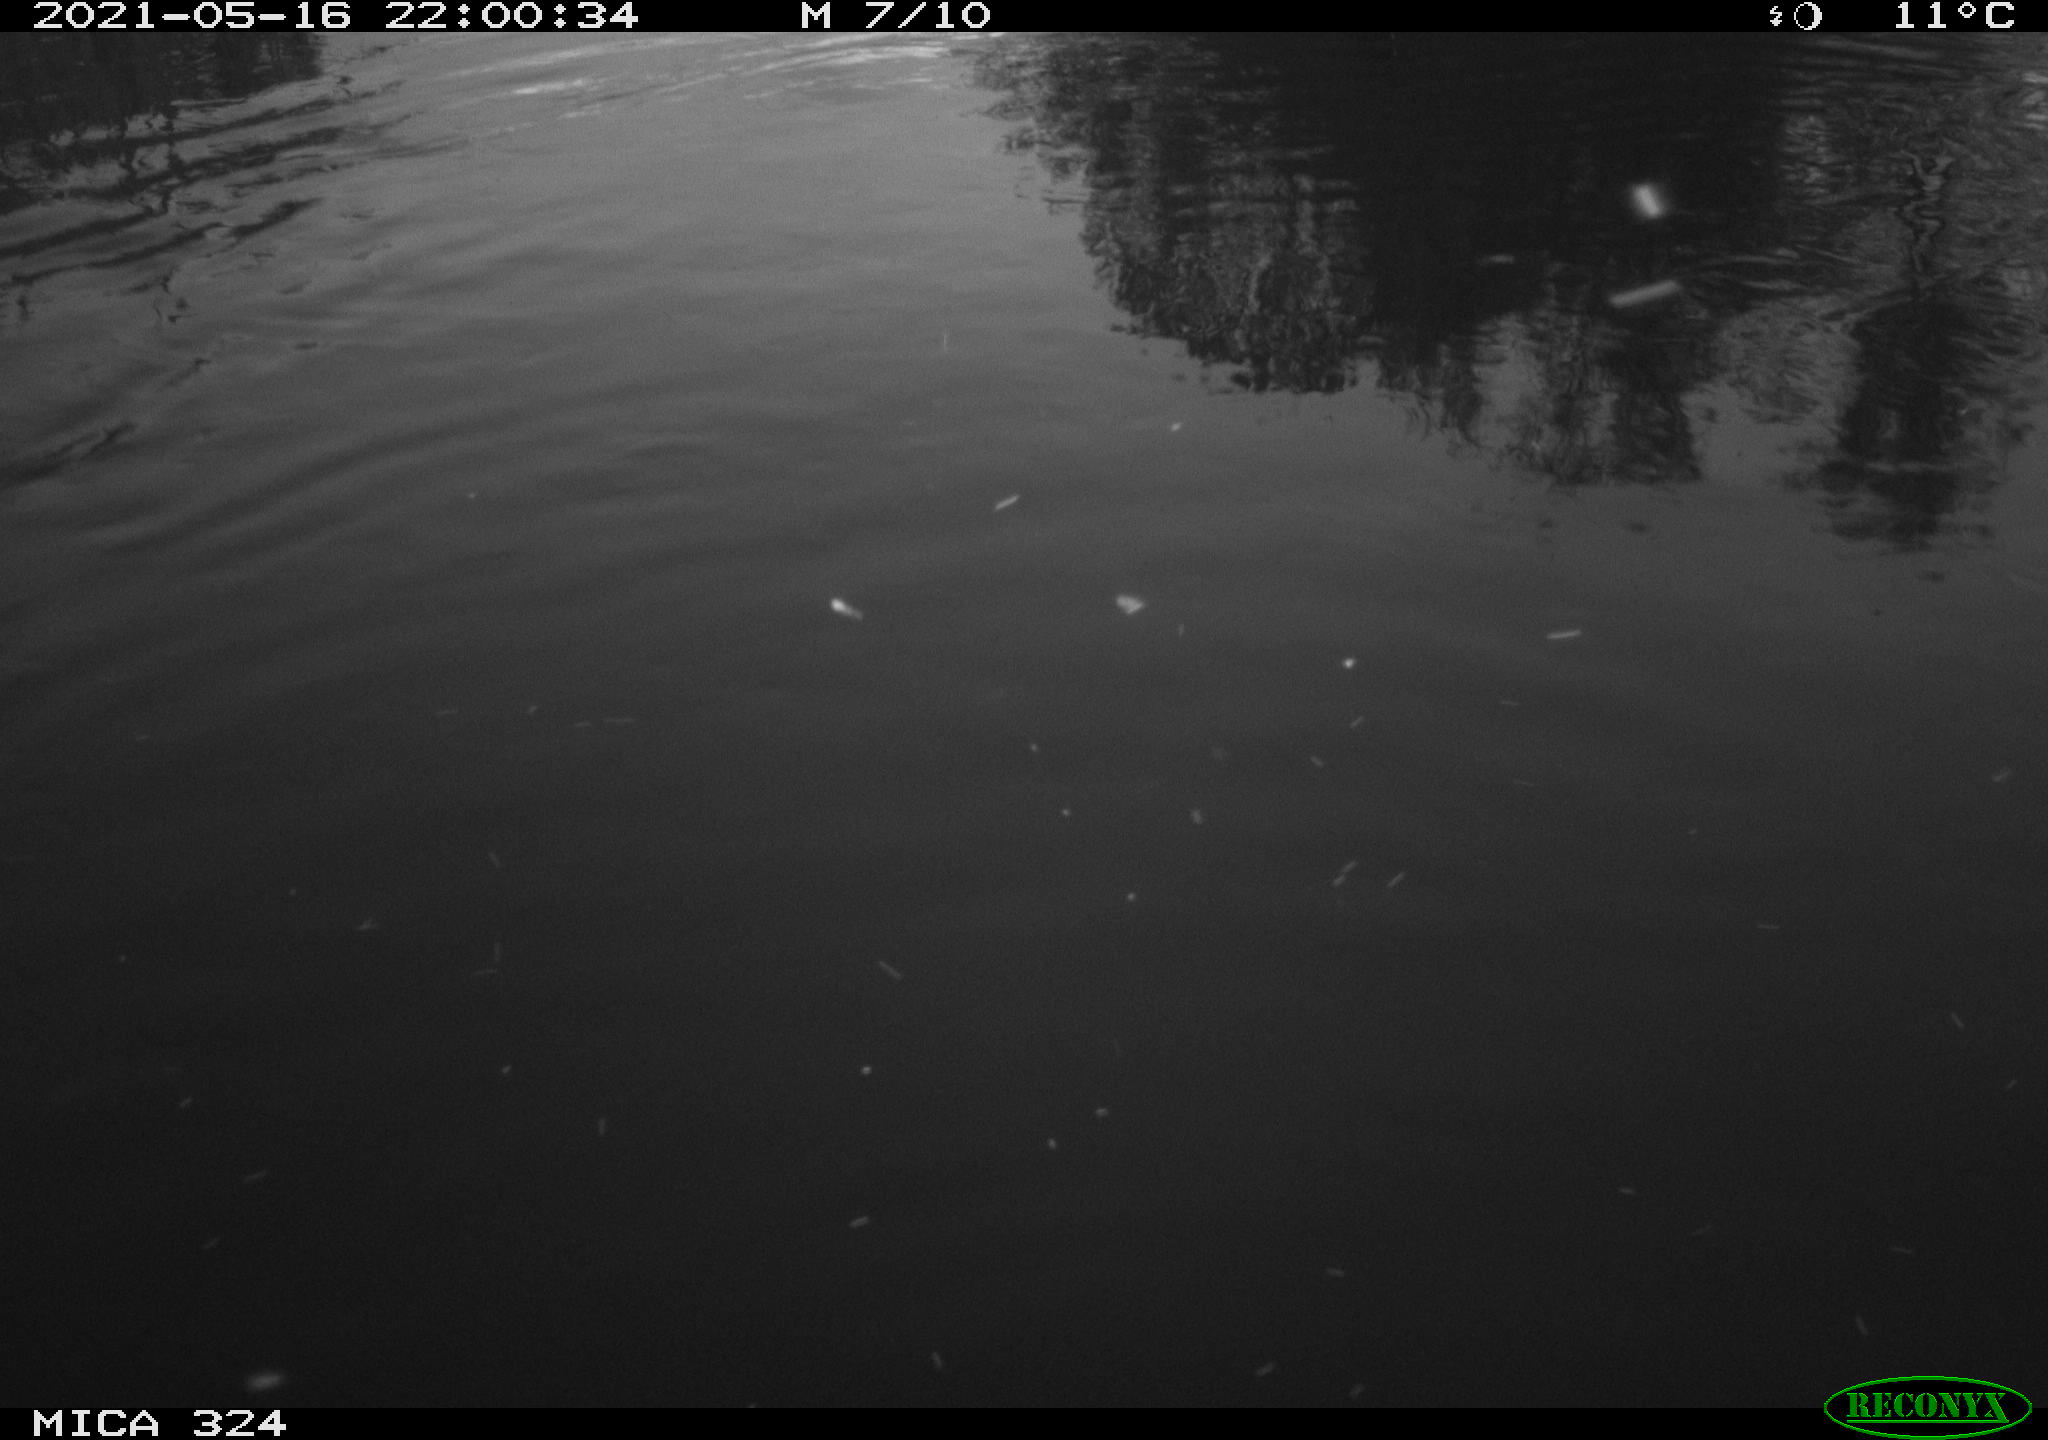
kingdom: Animalia
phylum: Chordata
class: Aves
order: Anseriformes
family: Anatidae
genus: Anas
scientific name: Anas platyrhynchos
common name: Mallard
